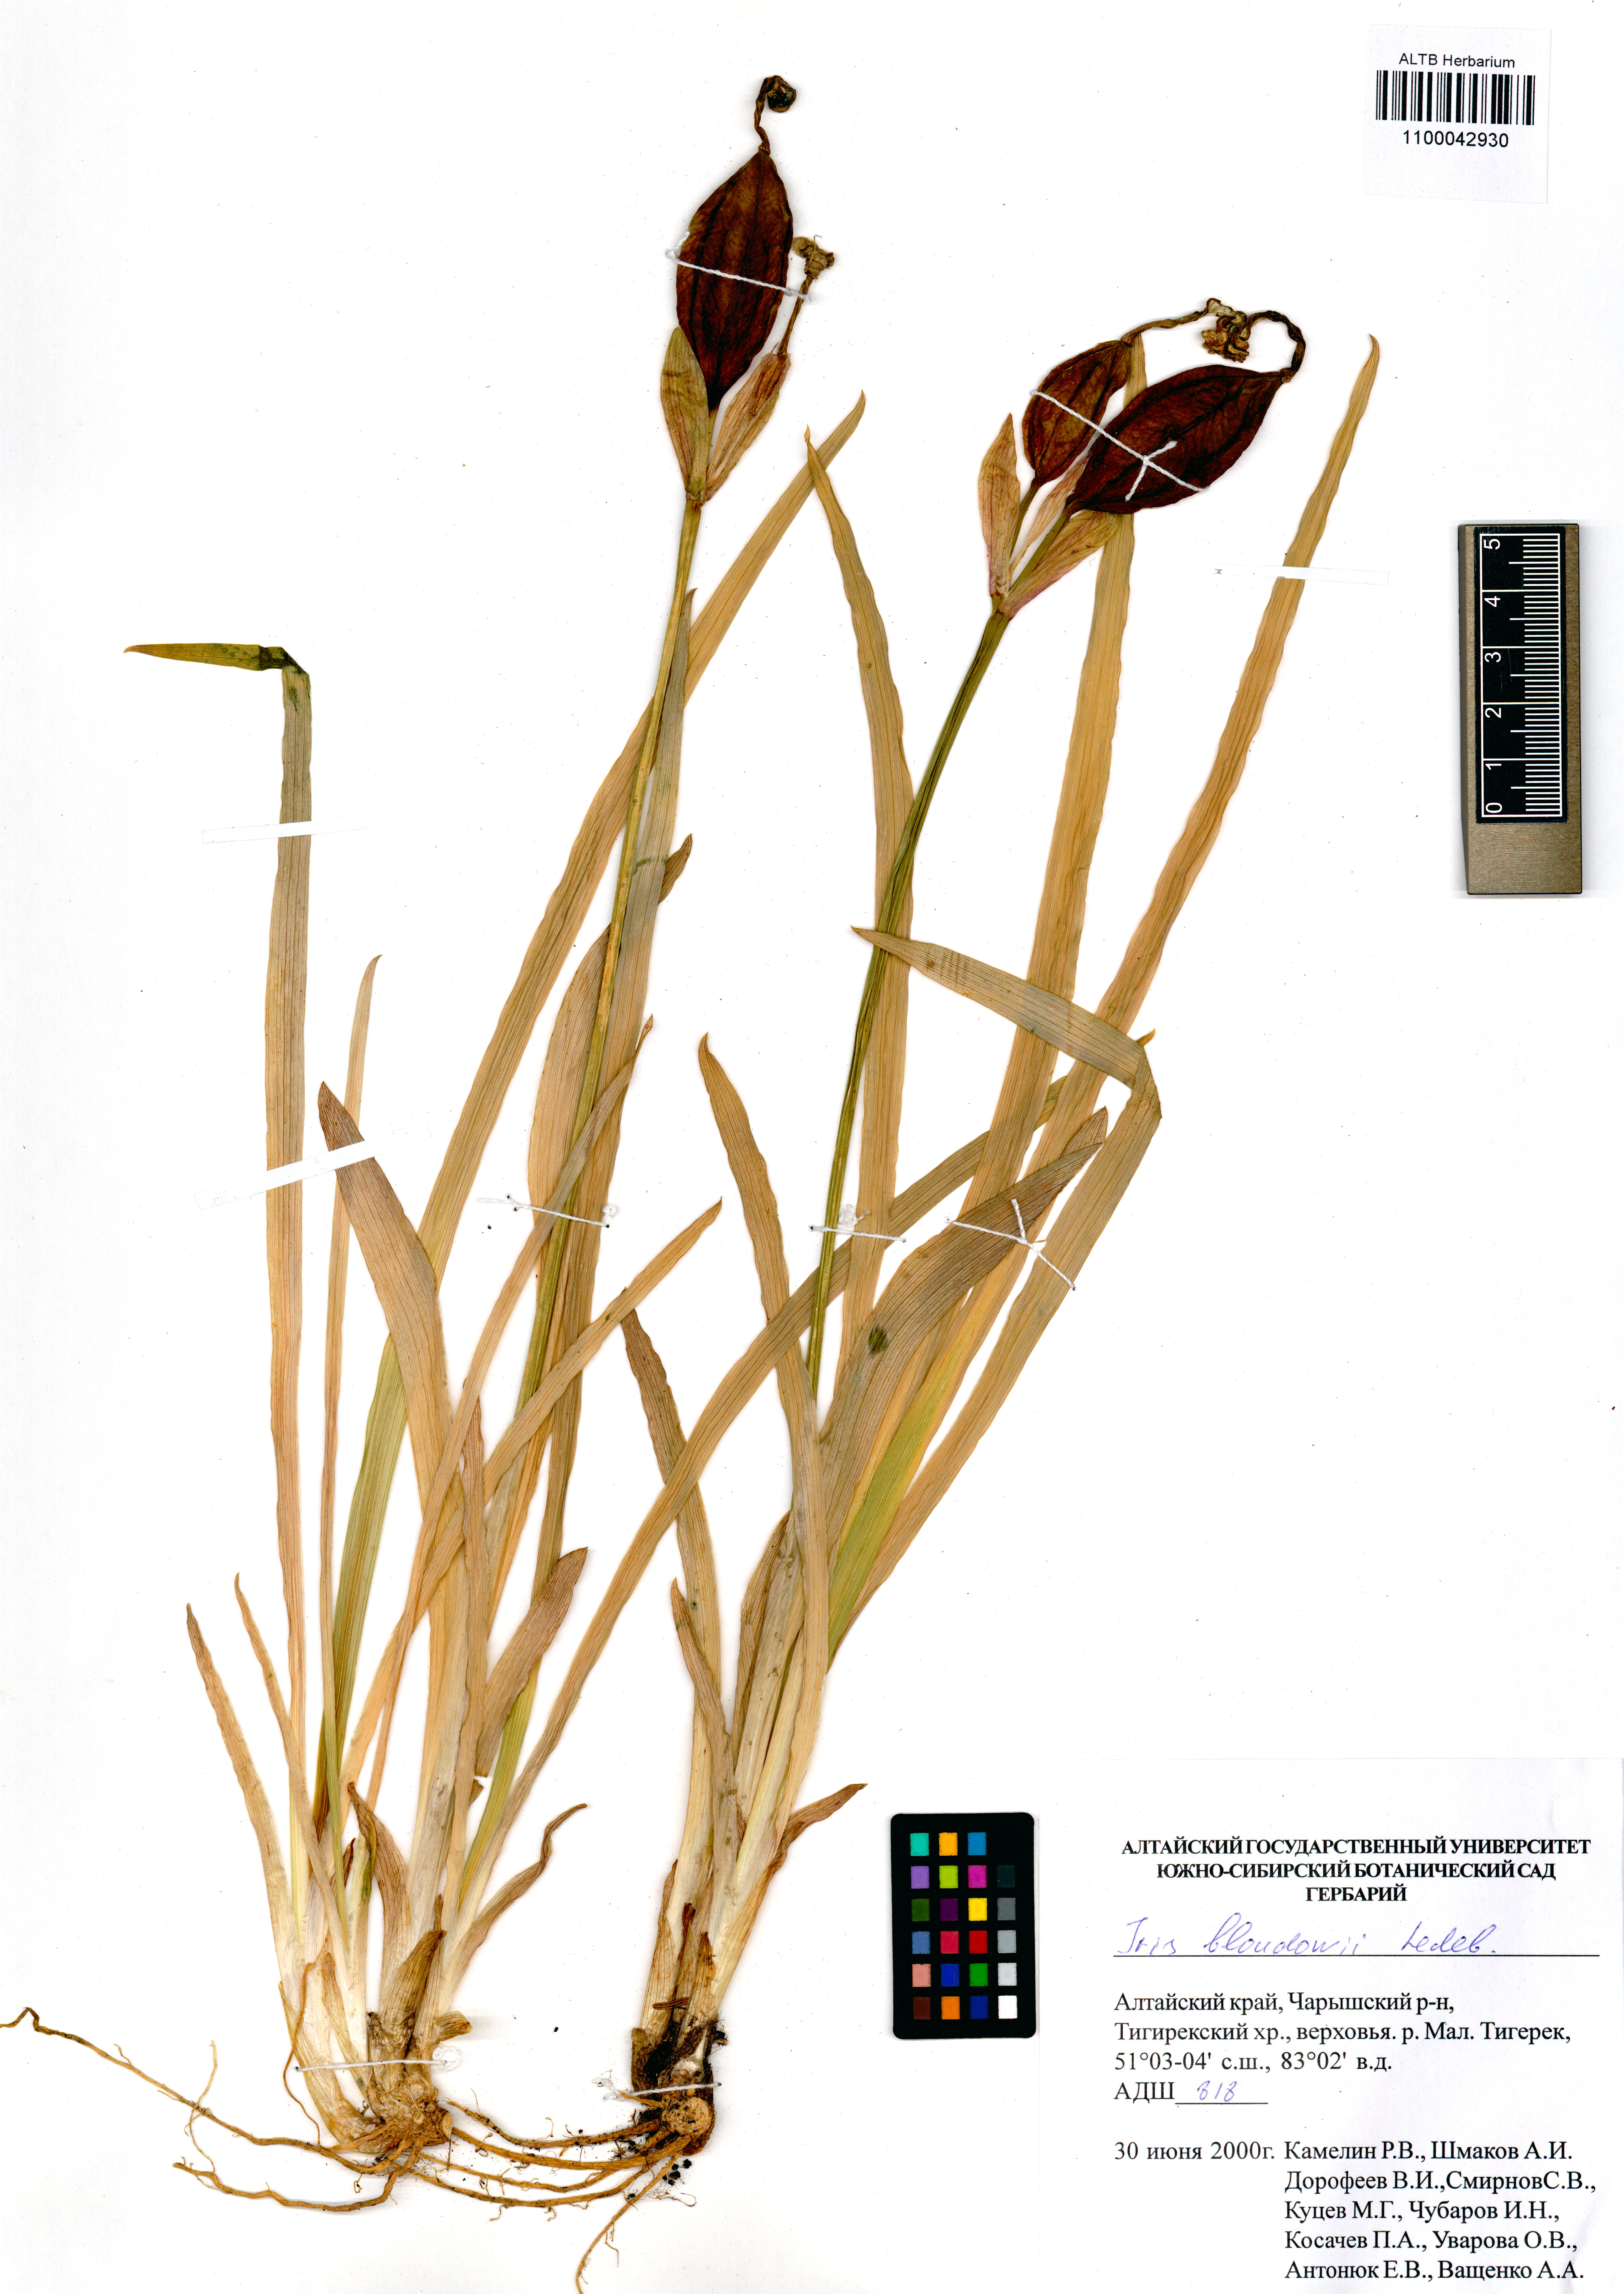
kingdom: Plantae
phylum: Tracheophyta
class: Liliopsida
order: Asparagales
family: Iridaceae
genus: Iris
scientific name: Iris bloudowii
